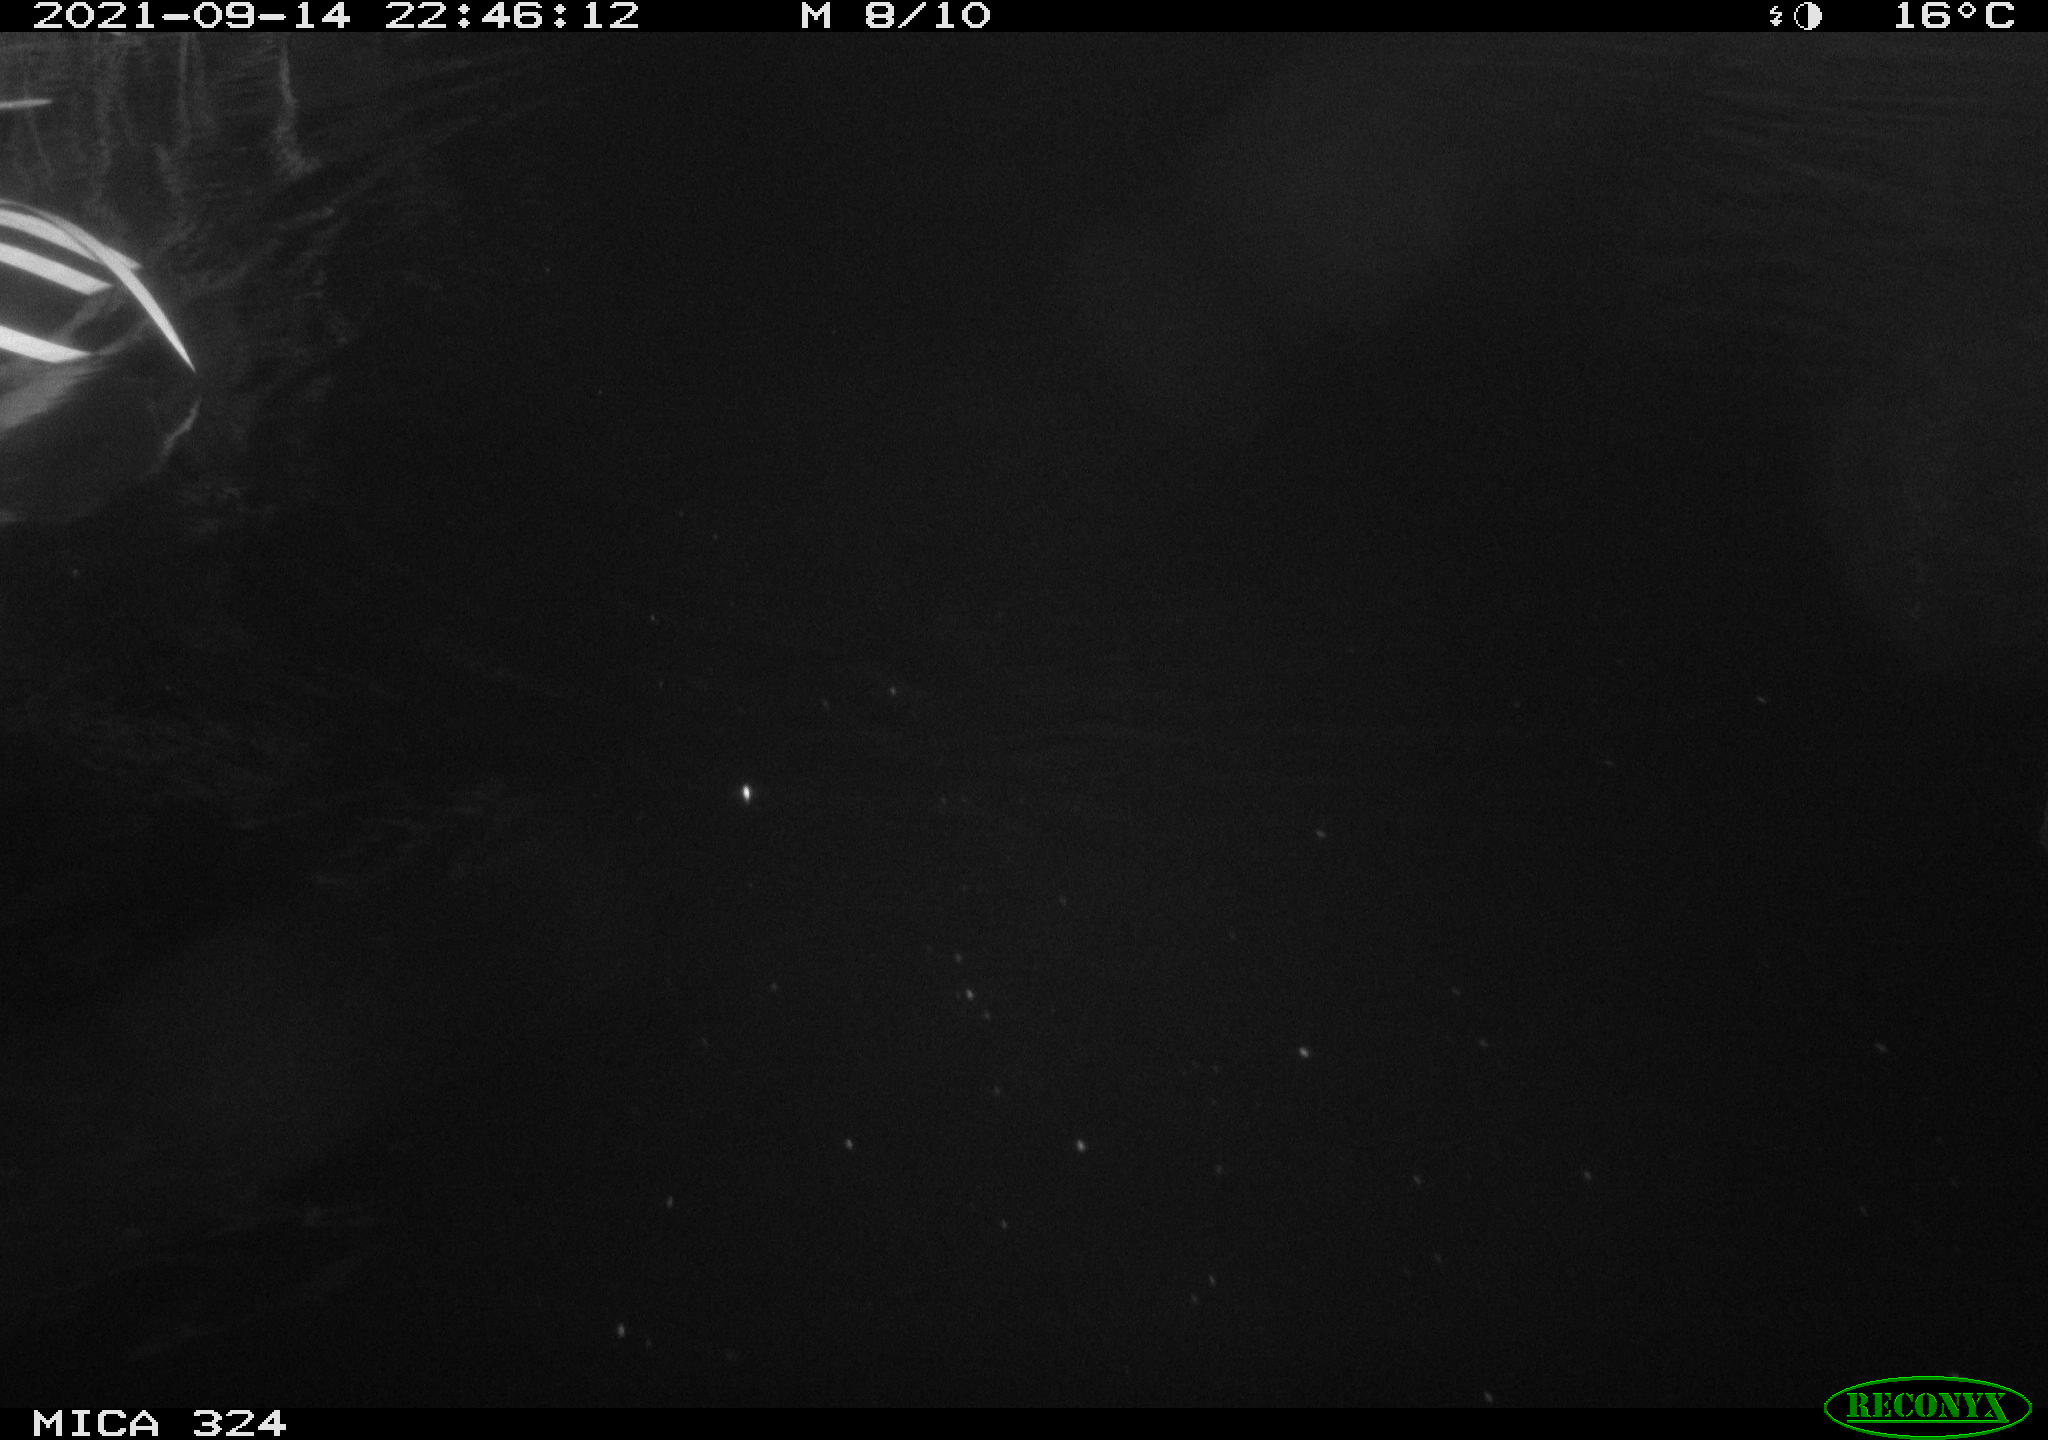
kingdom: Animalia
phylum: Chordata
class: Mammalia
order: Rodentia
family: Cricetidae
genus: Ondatra
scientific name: Ondatra zibethicus
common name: Muskrat
